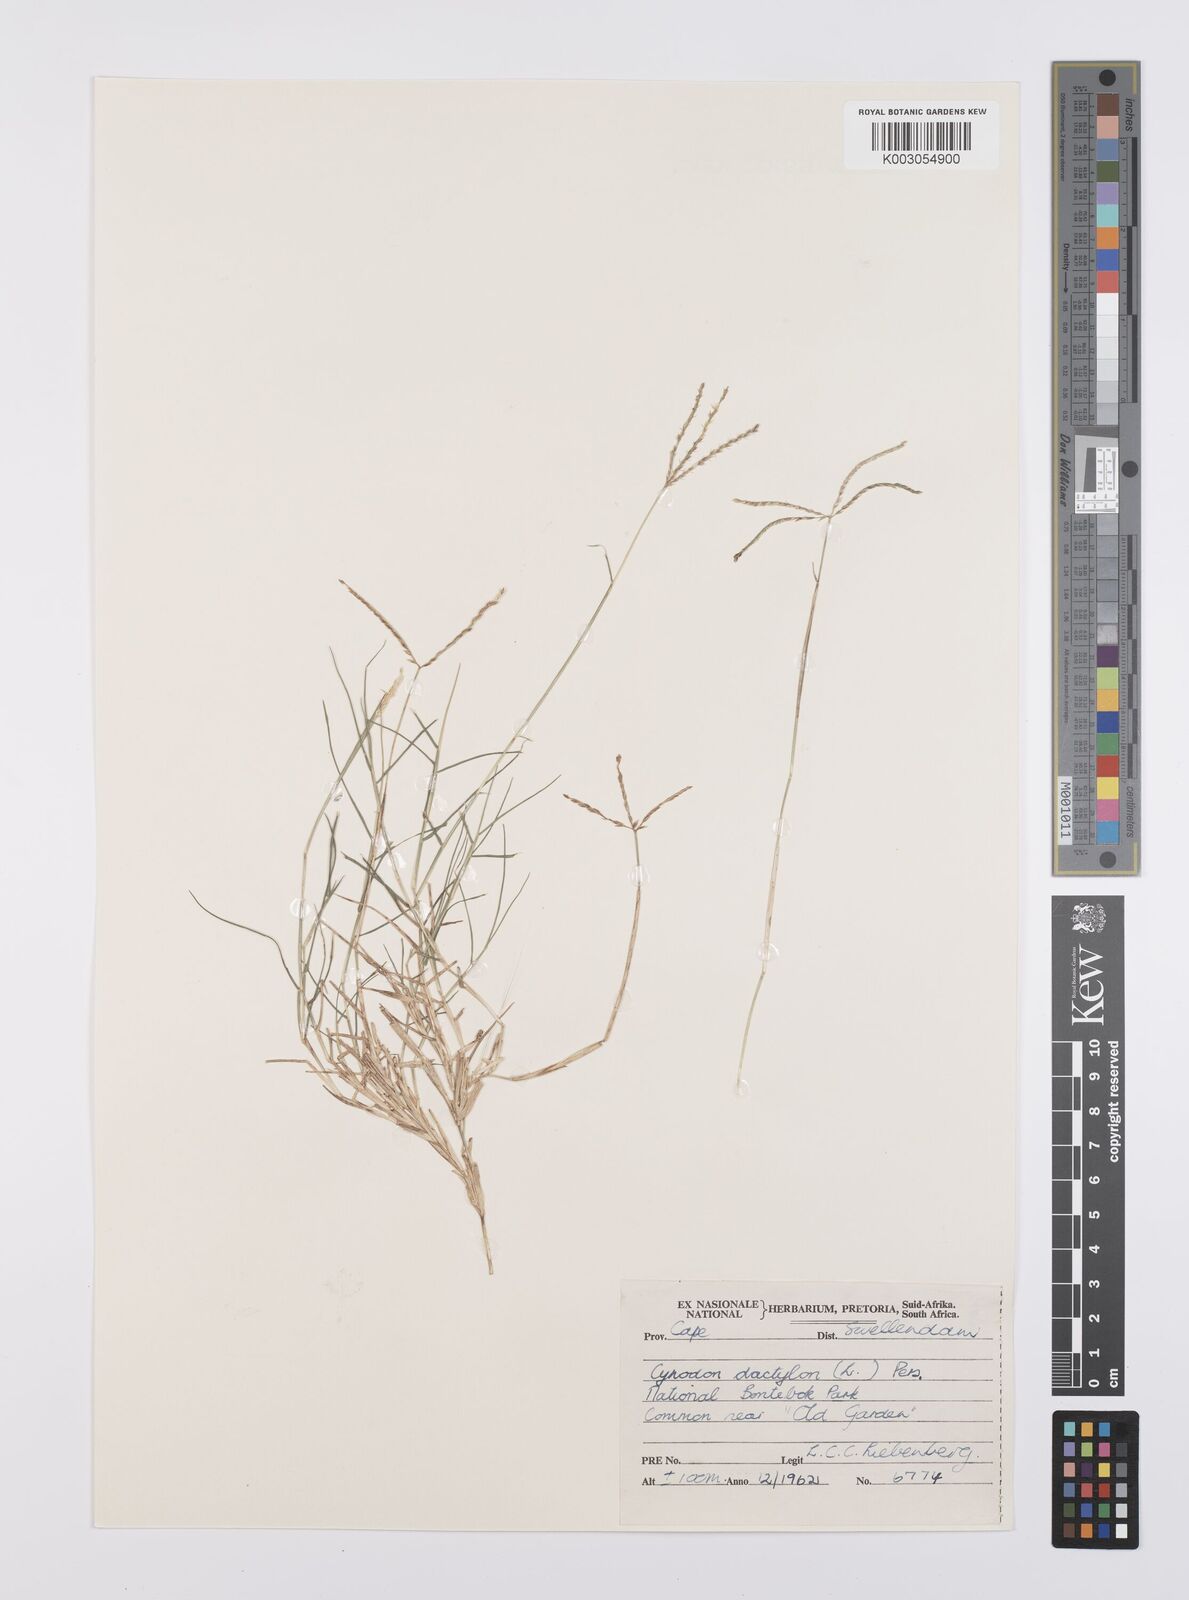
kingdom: Plantae
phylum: Tracheophyta
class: Liliopsida
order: Poales
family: Poaceae
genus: Cynodon
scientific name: Cynodon dactylon
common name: Bermuda grass
